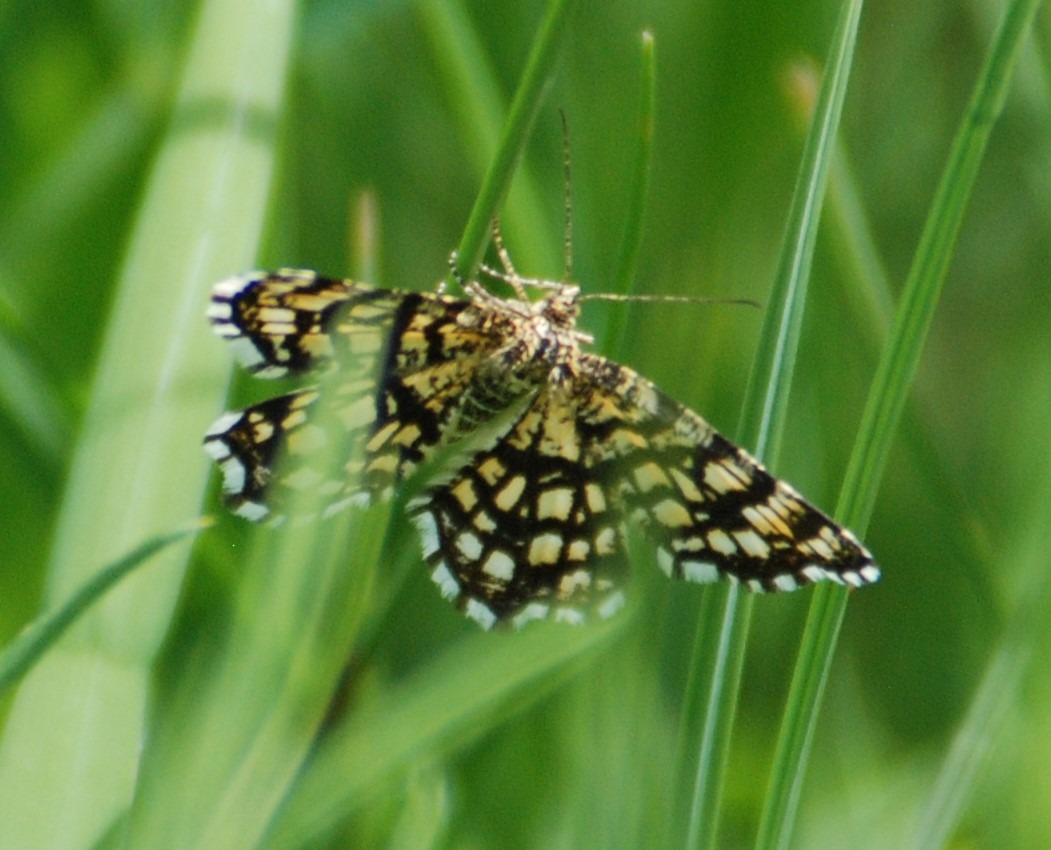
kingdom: Animalia
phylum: Arthropoda
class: Insecta
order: Lepidoptera
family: Geometridae
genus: Chiasmia
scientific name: Chiasmia clathrata
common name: Kløvermåler
